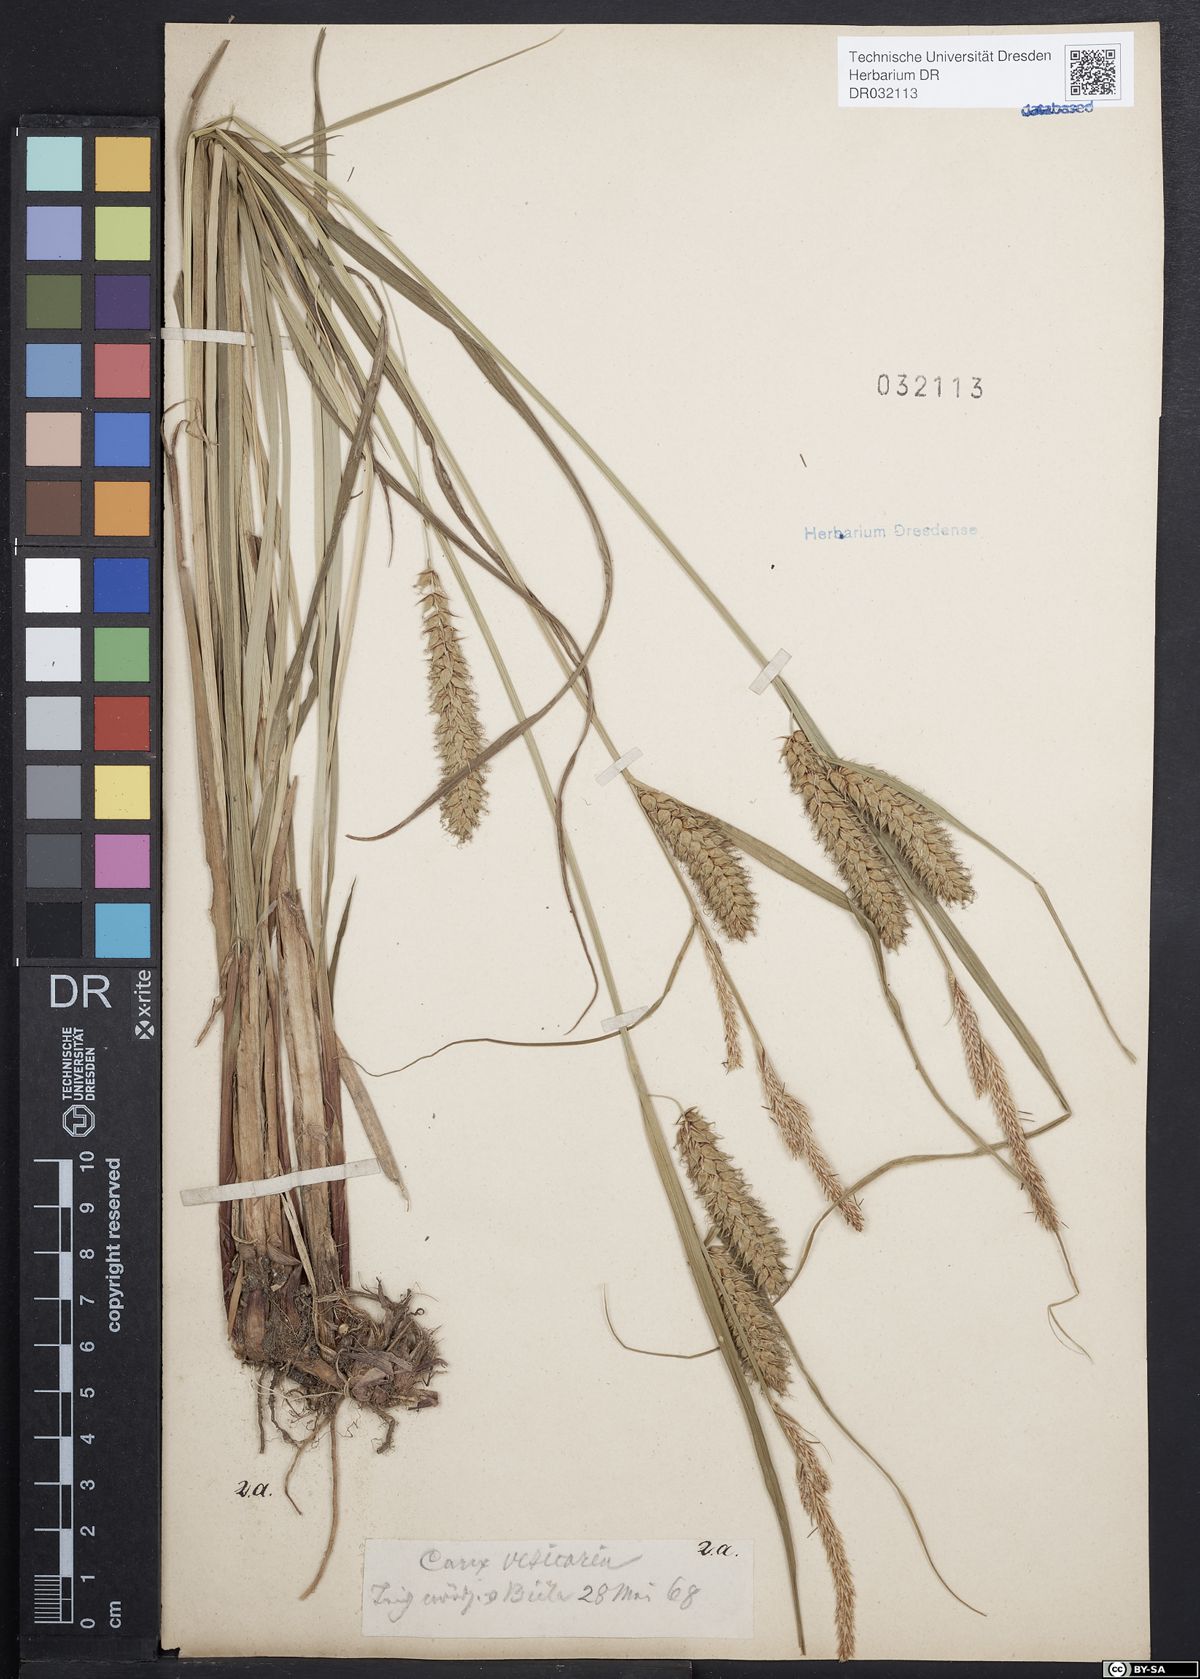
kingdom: Plantae
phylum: Tracheophyta
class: Liliopsida
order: Poales
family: Cyperaceae
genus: Carex
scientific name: Carex vesicaria
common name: Bladder-sedge
